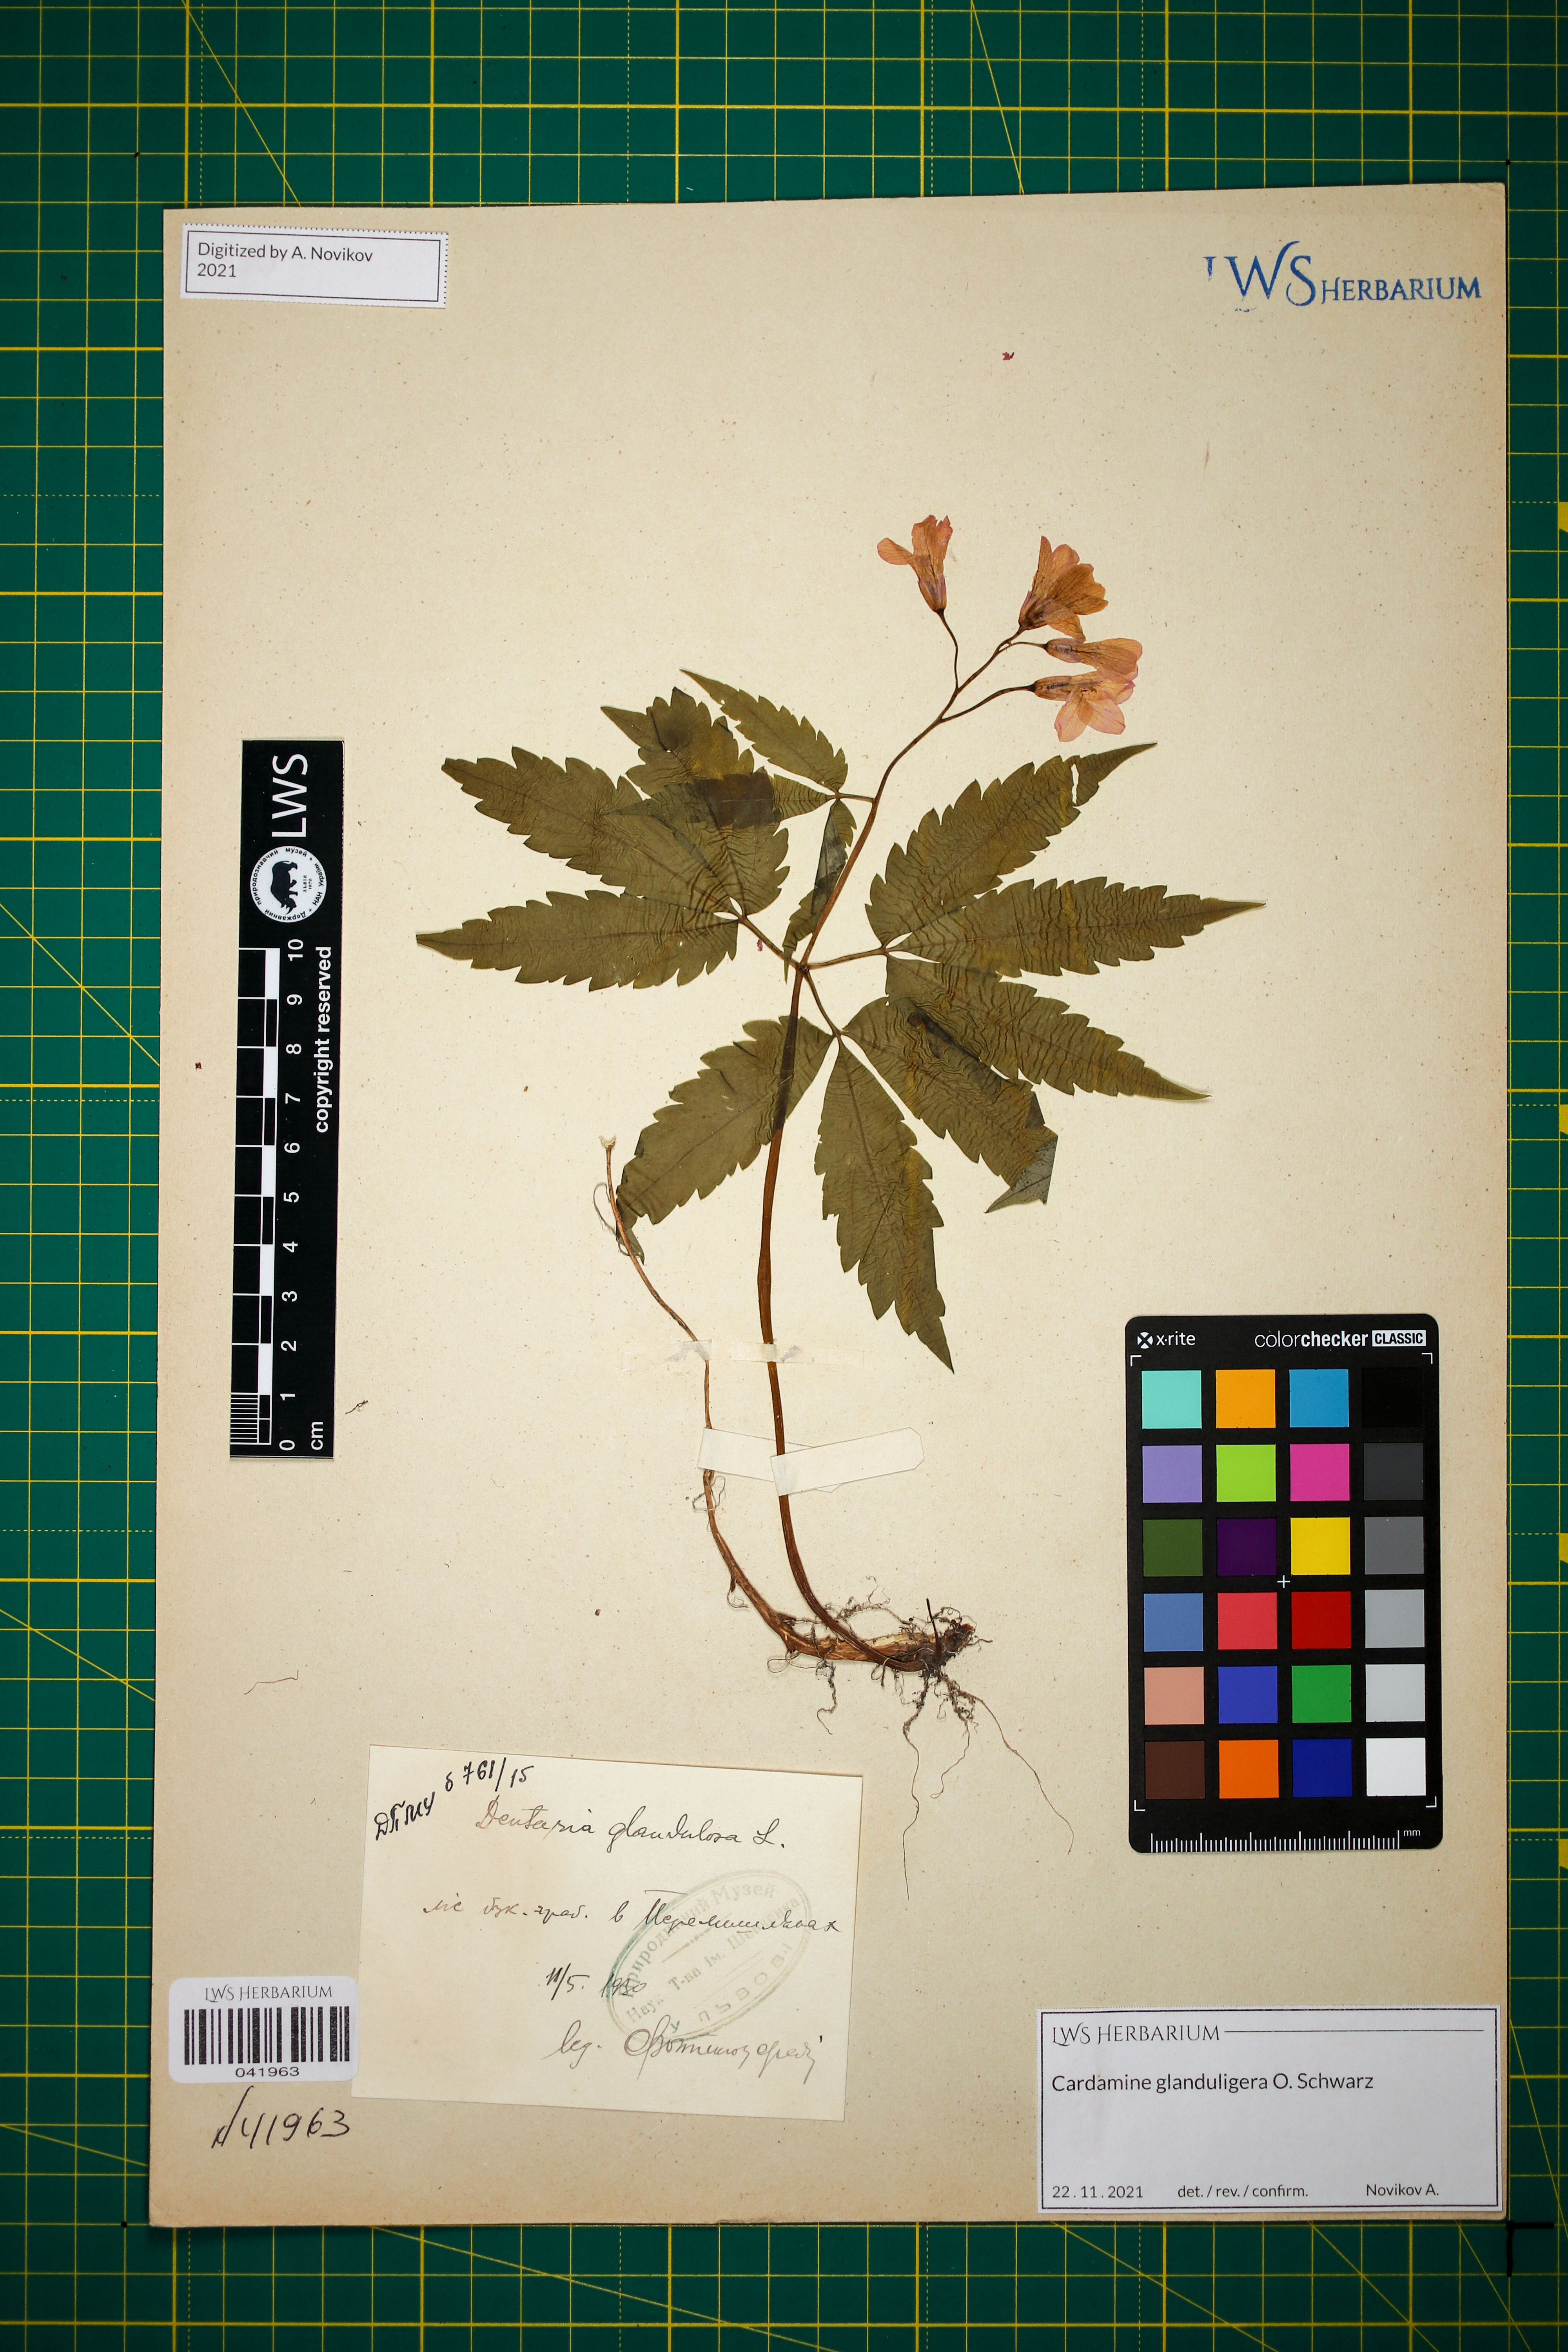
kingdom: Plantae
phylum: Tracheophyta
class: Magnoliopsida
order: Brassicales
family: Brassicaceae
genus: Cardamine
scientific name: Cardamine glanduligera
